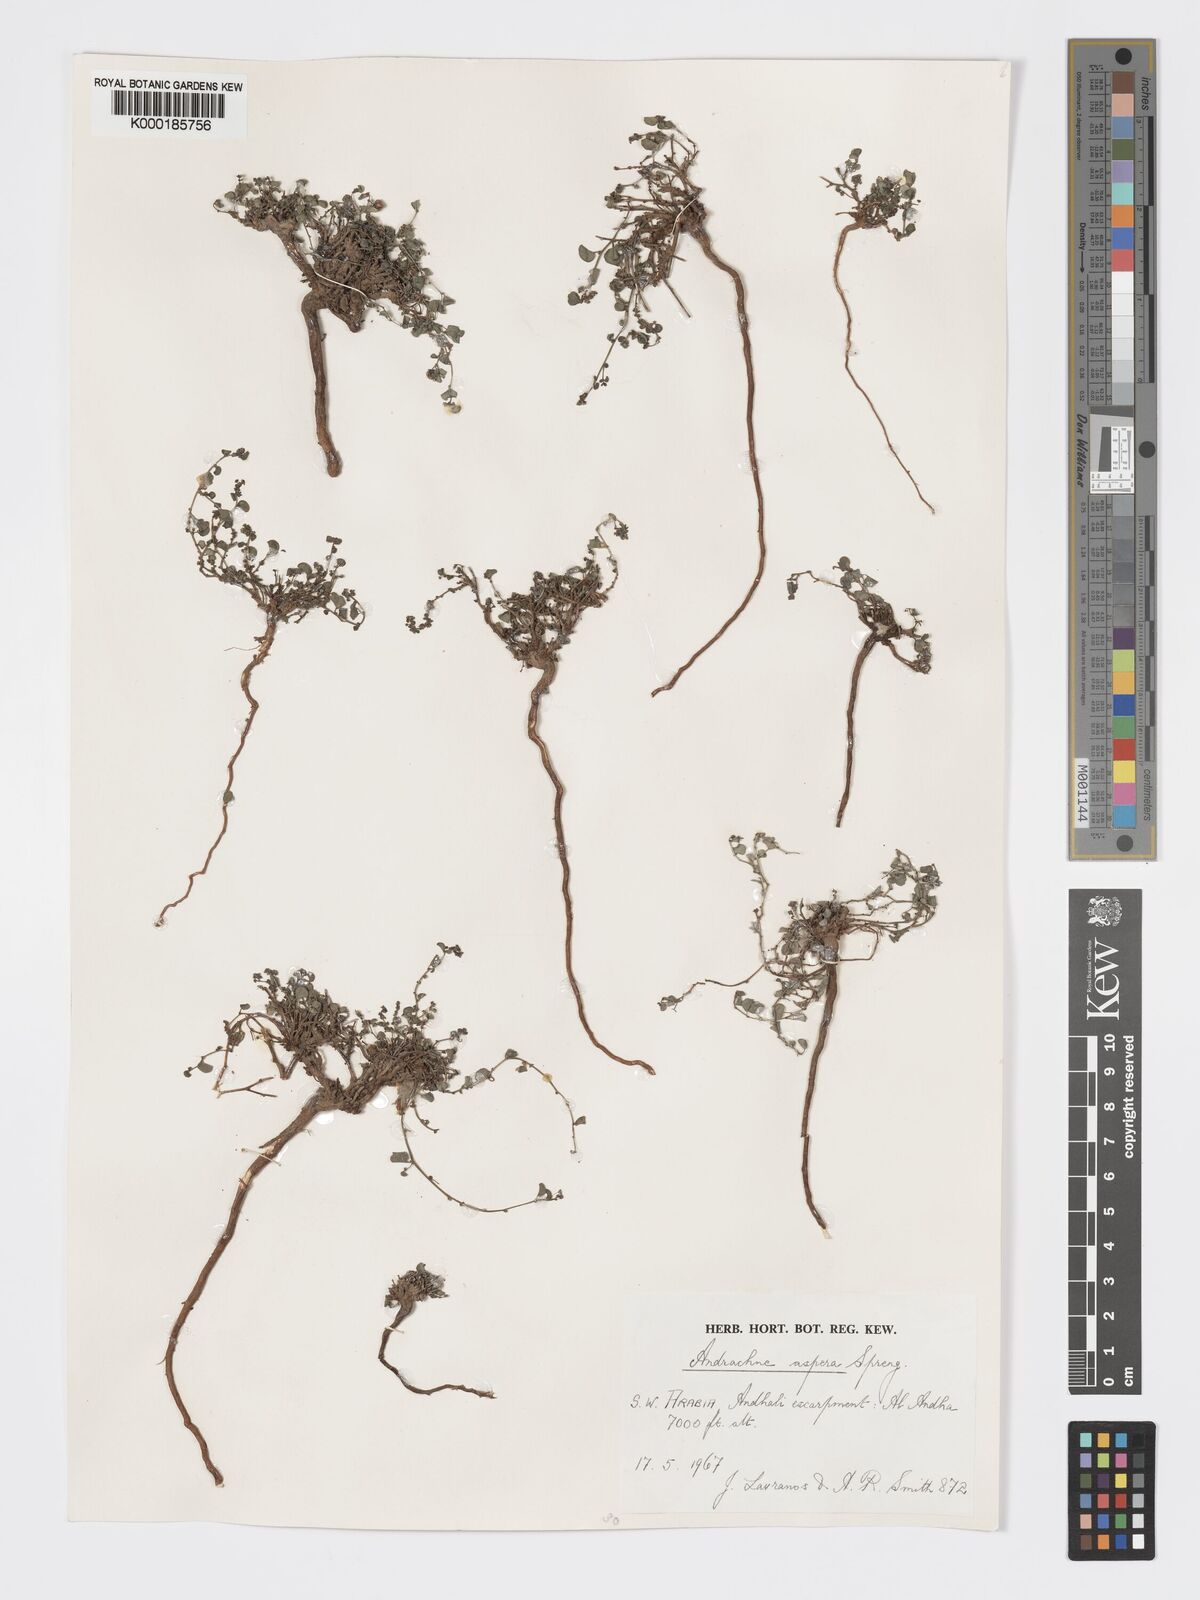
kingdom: Plantae
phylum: Tracheophyta
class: Magnoliopsida
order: Malpighiales
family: Phyllanthaceae
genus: Andrachne
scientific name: Andrachne aspera
